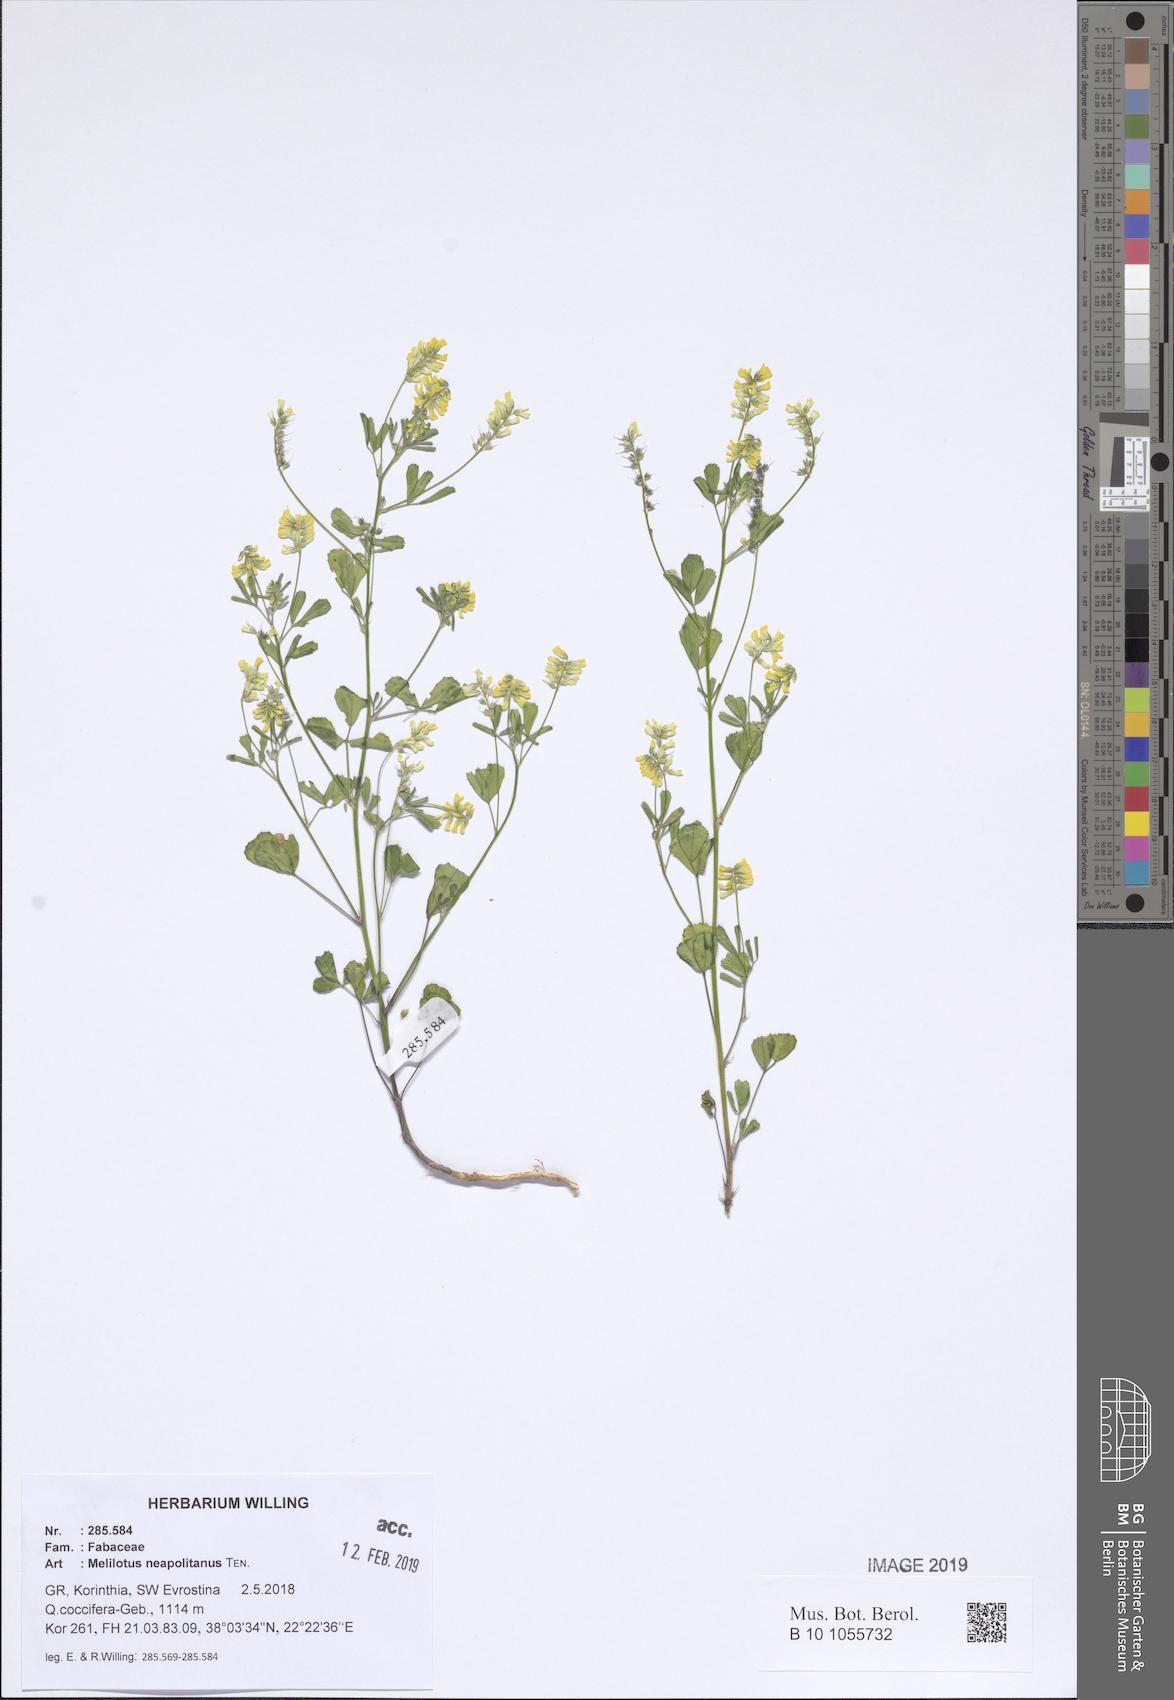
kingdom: Plantae
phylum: Tracheophyta
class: Magnoliopsida
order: Fabales
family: Fabaceae
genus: Melilotus
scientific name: Melilotus neapolitanus
